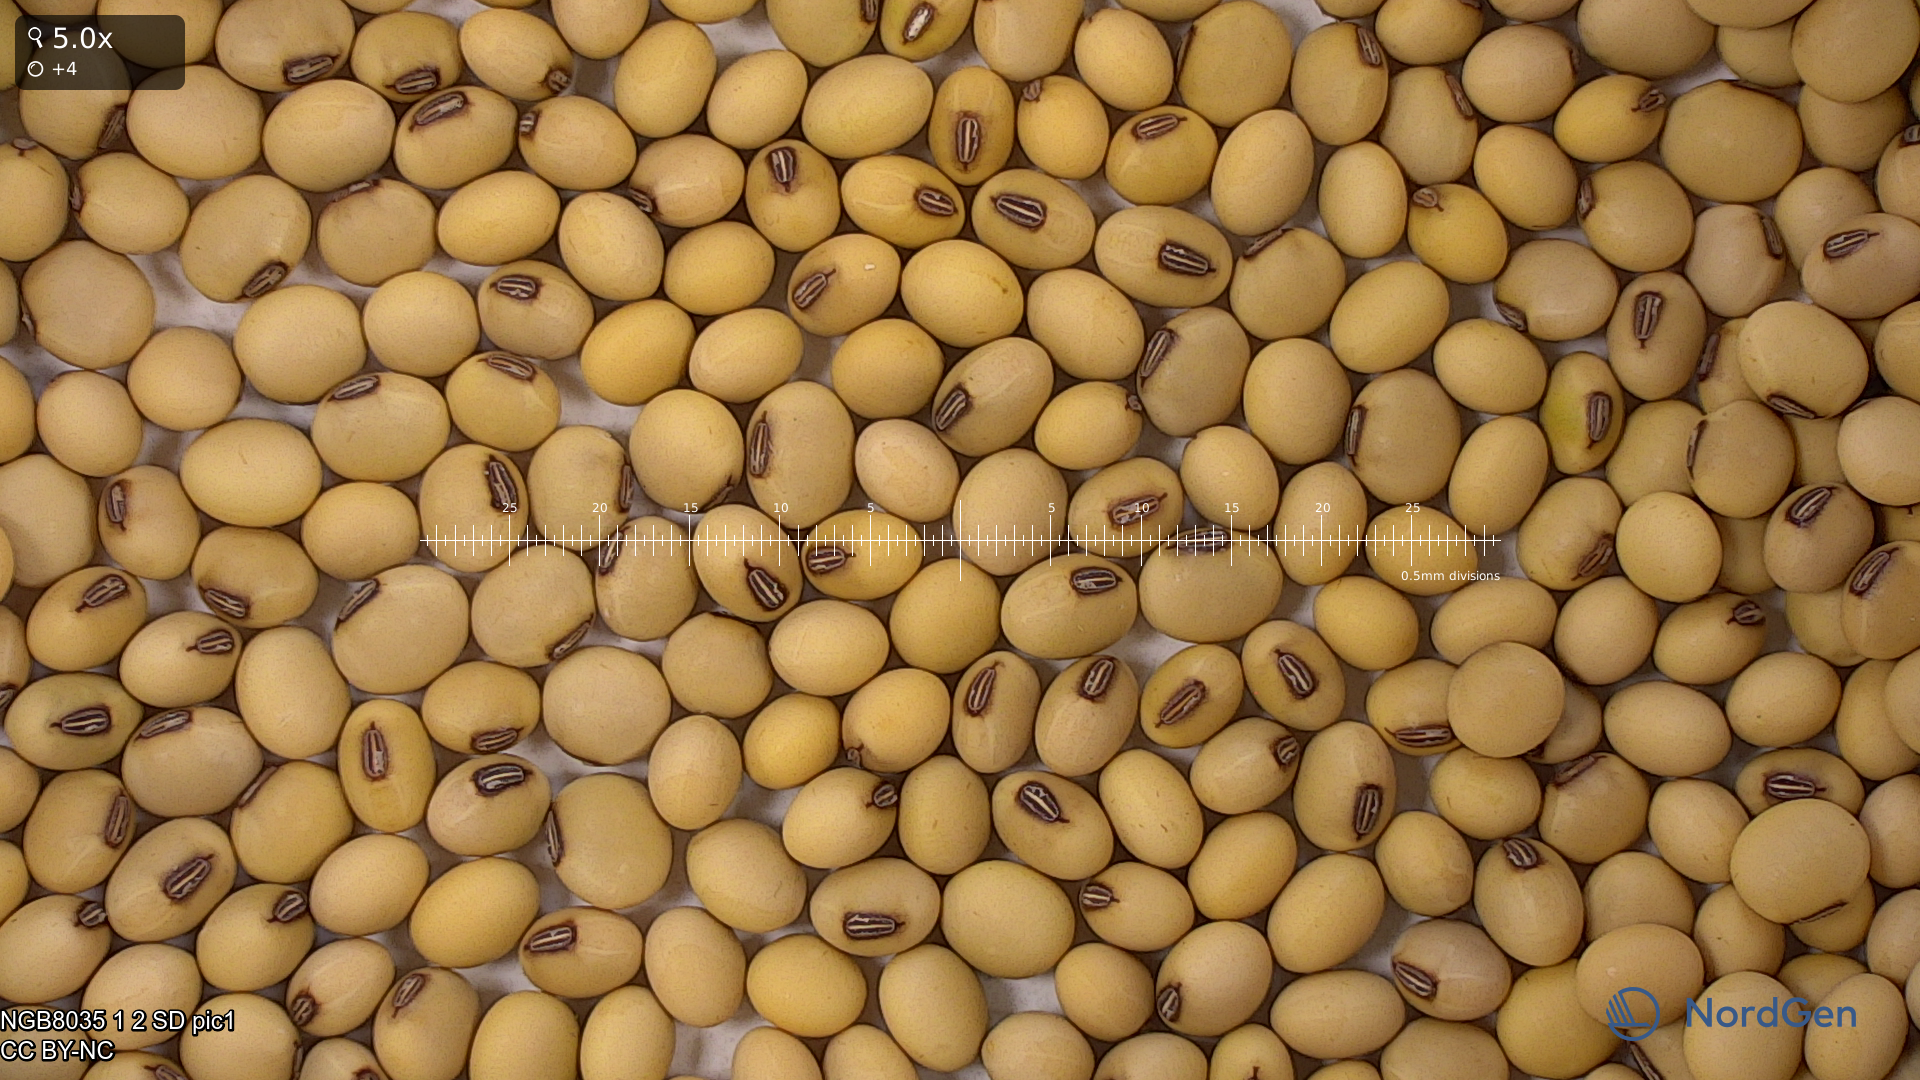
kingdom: Plantae
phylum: Tracheophyta
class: Magnoliopsida
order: Fabales
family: Fabaceae
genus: Glycine
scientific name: Glycine max
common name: Soya-bean
